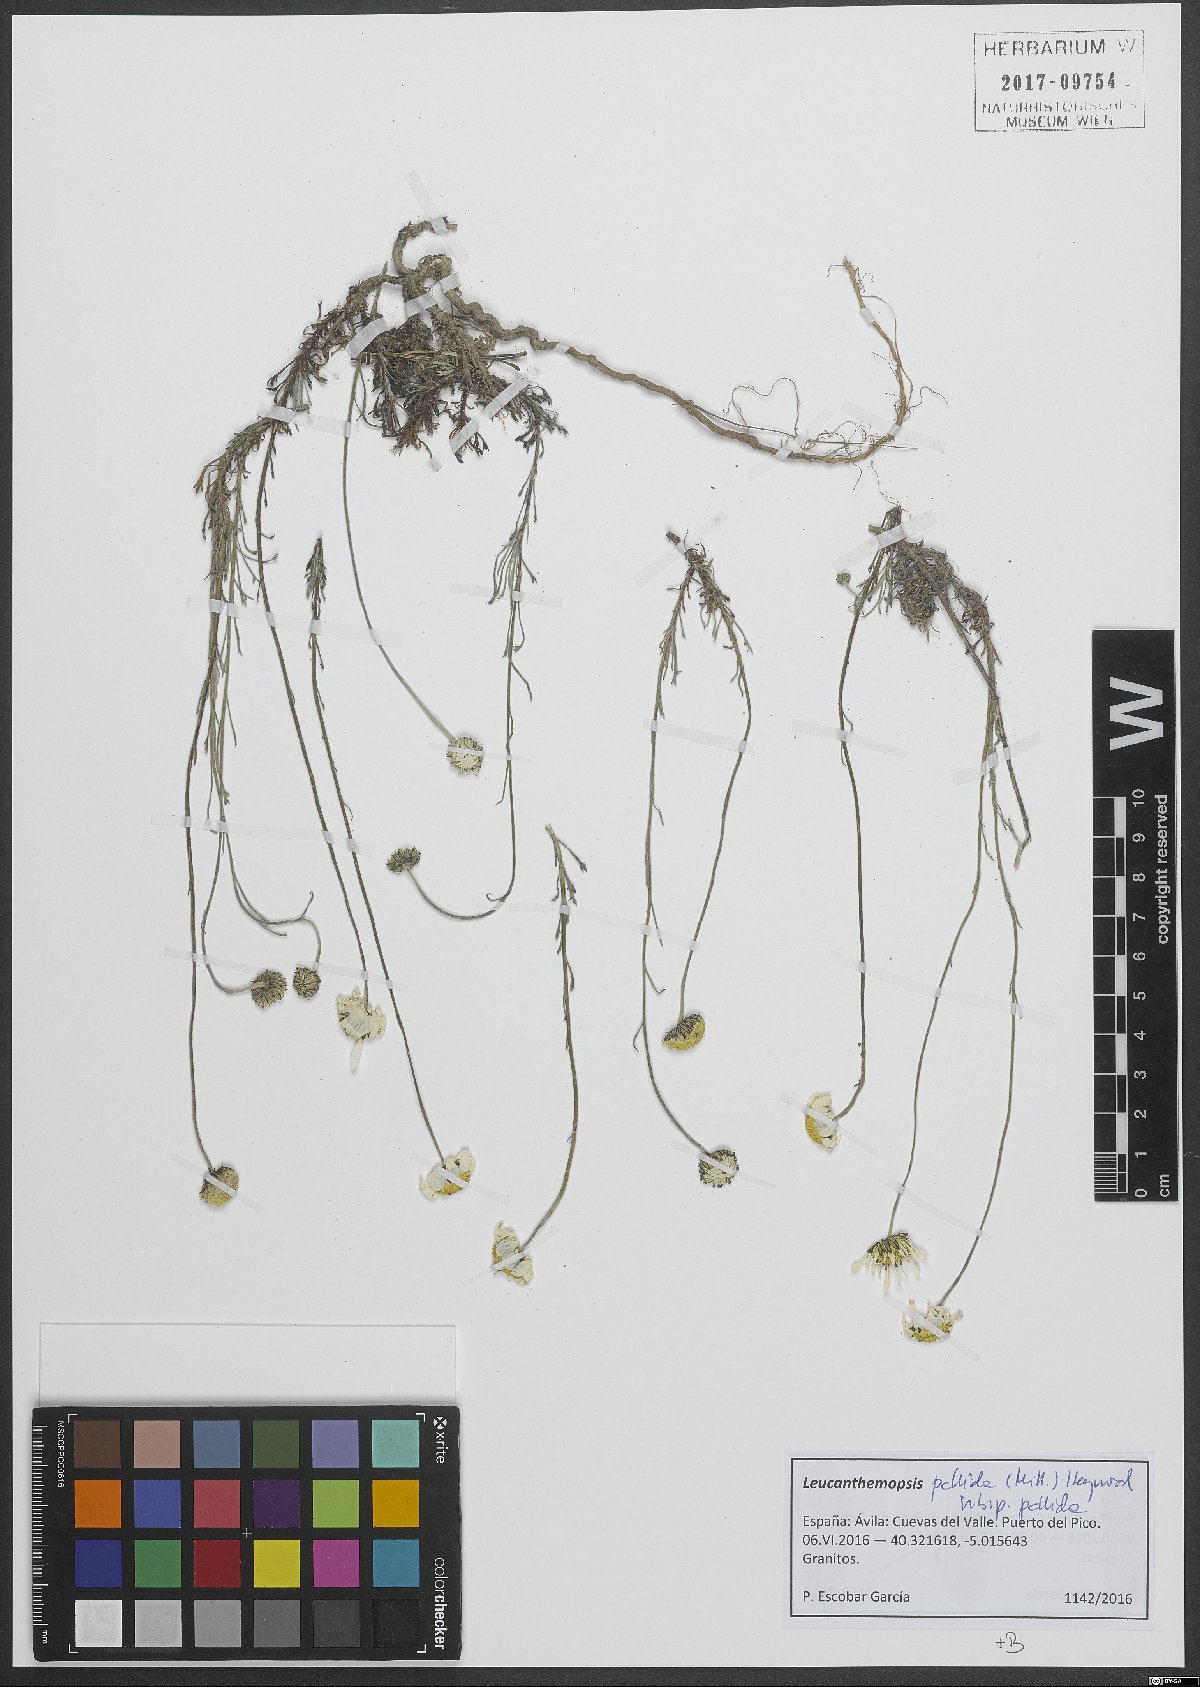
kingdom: Plantae
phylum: Tracheophyta
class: Magnoliopsida
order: Asterales
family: Asteraceae
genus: Leucanthemopsis
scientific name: Leucanthemopsis pallida
